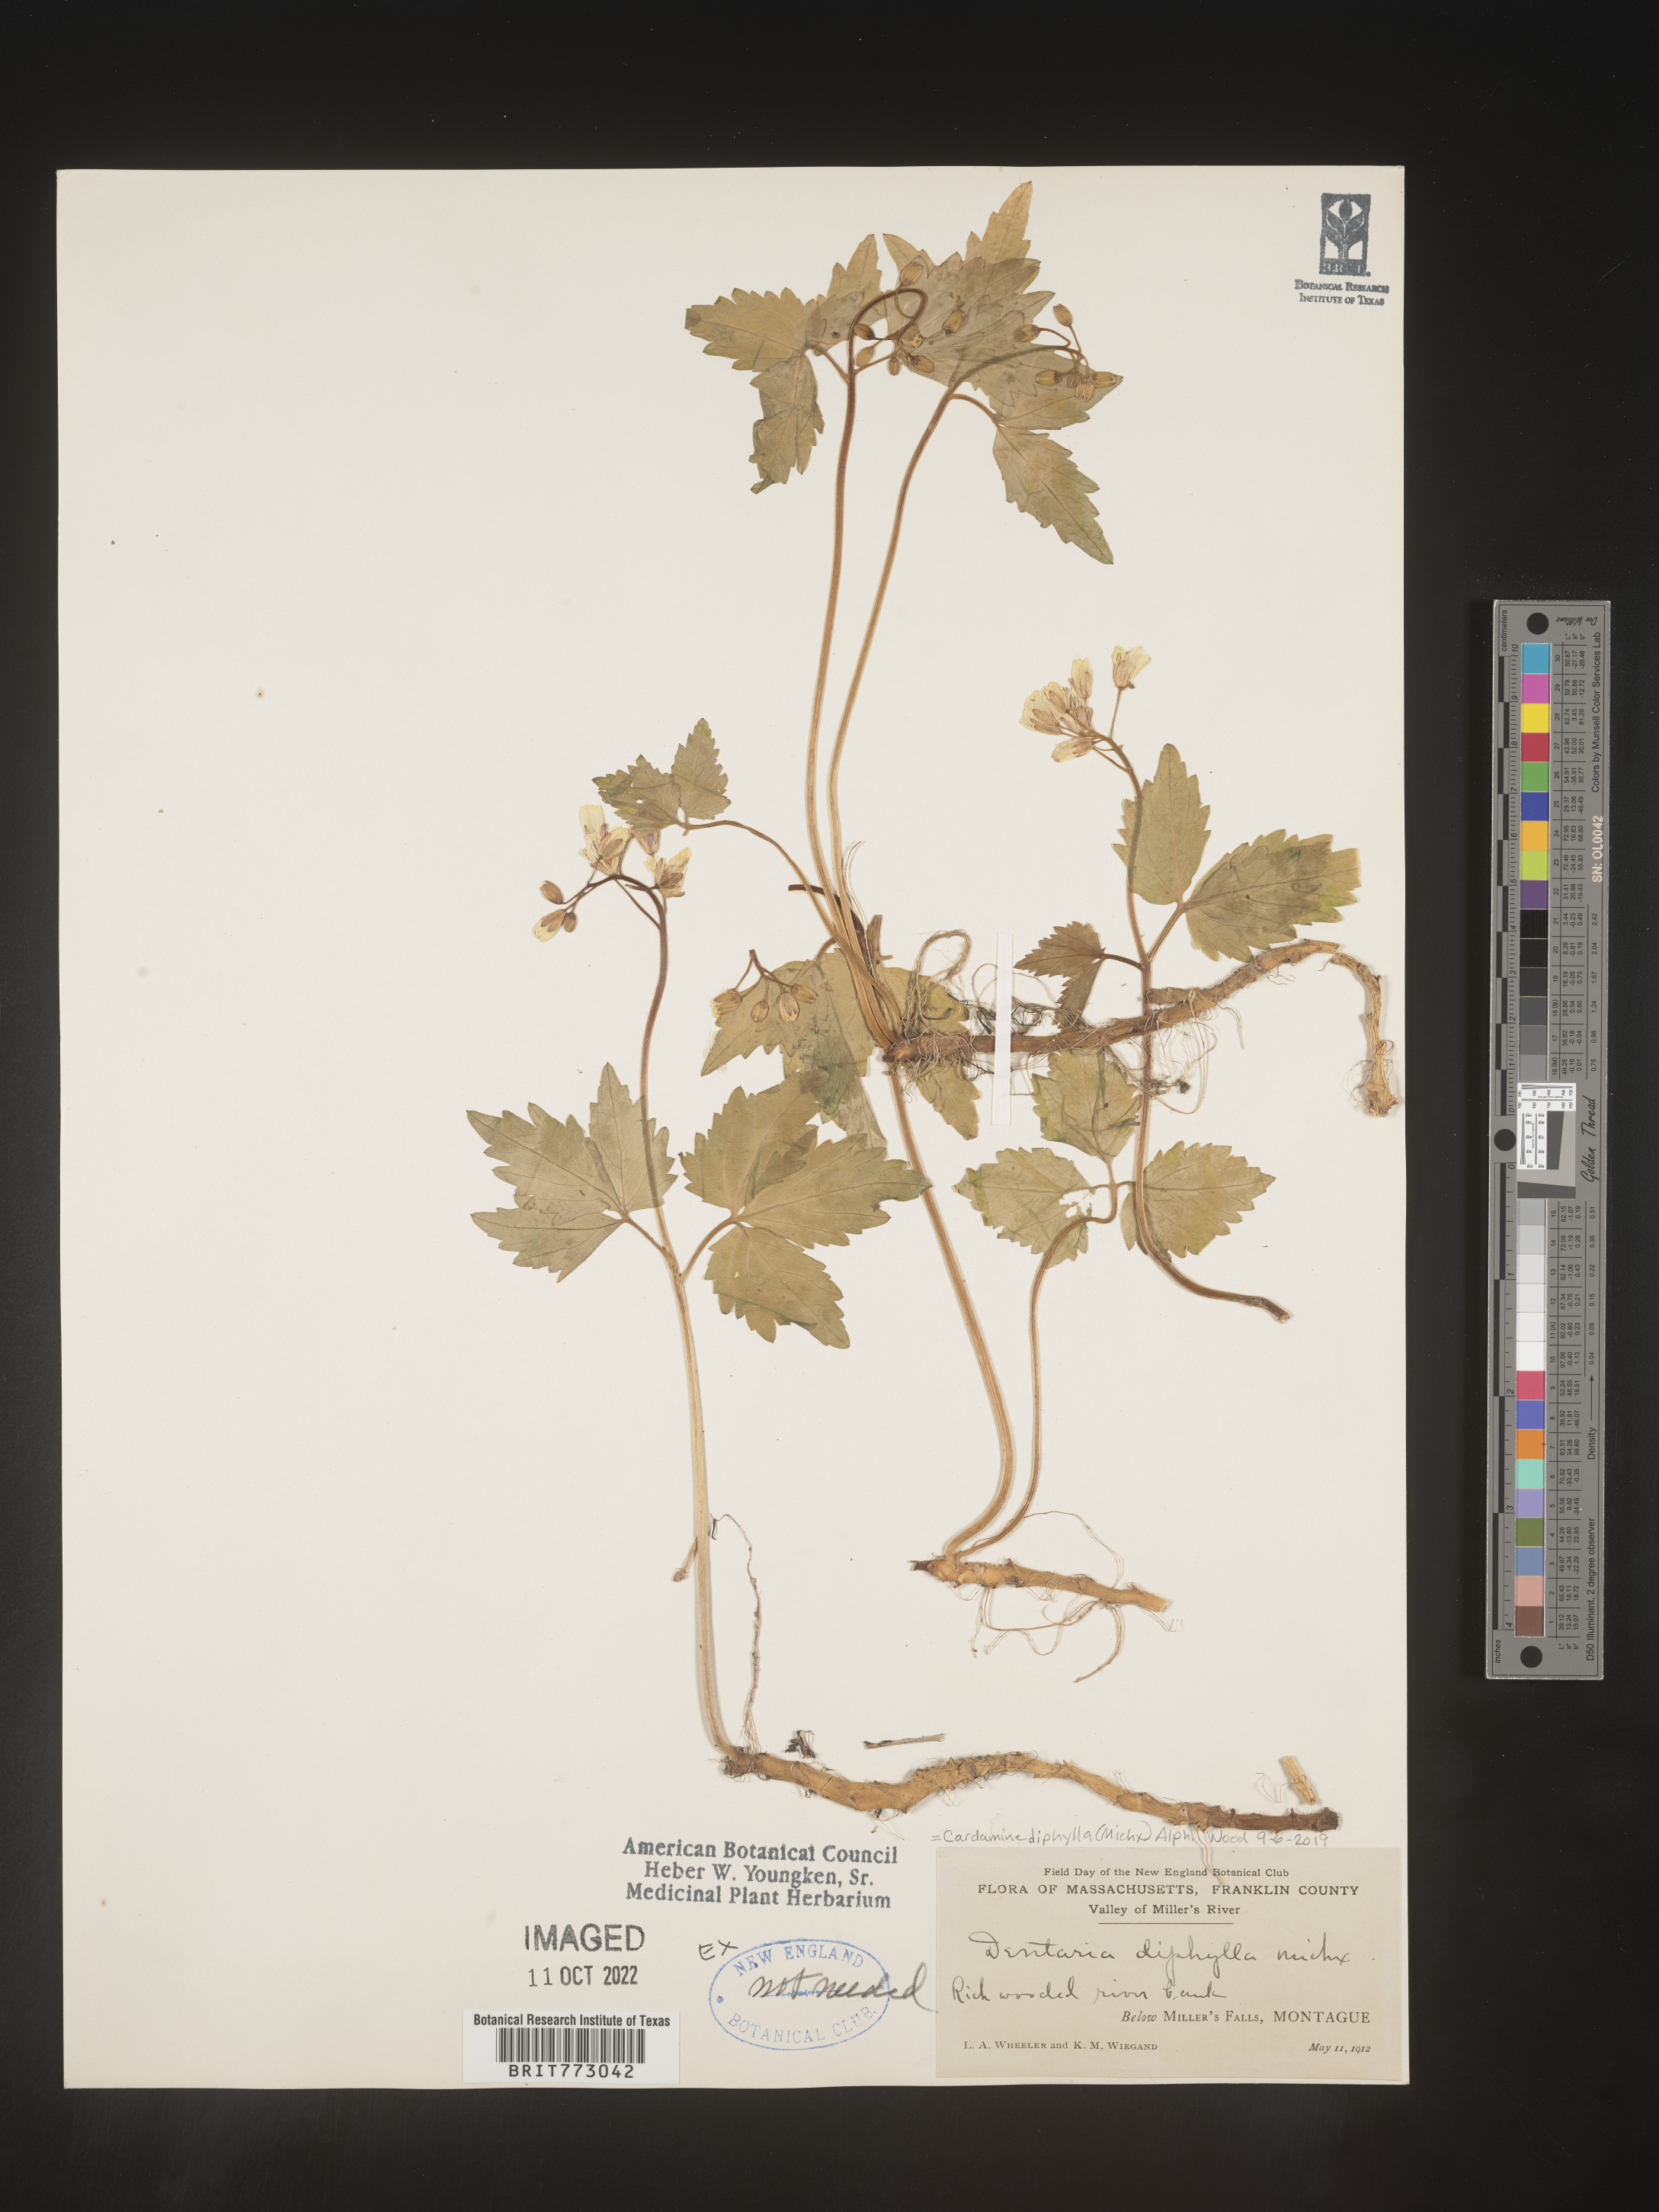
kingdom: Plantae
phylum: Tracheophyta
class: Magnoliopsida
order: Brassicales
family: Brassicaceae
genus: Cardamine
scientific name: Cardamine diphylla
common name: Broad-leaved toothwort
